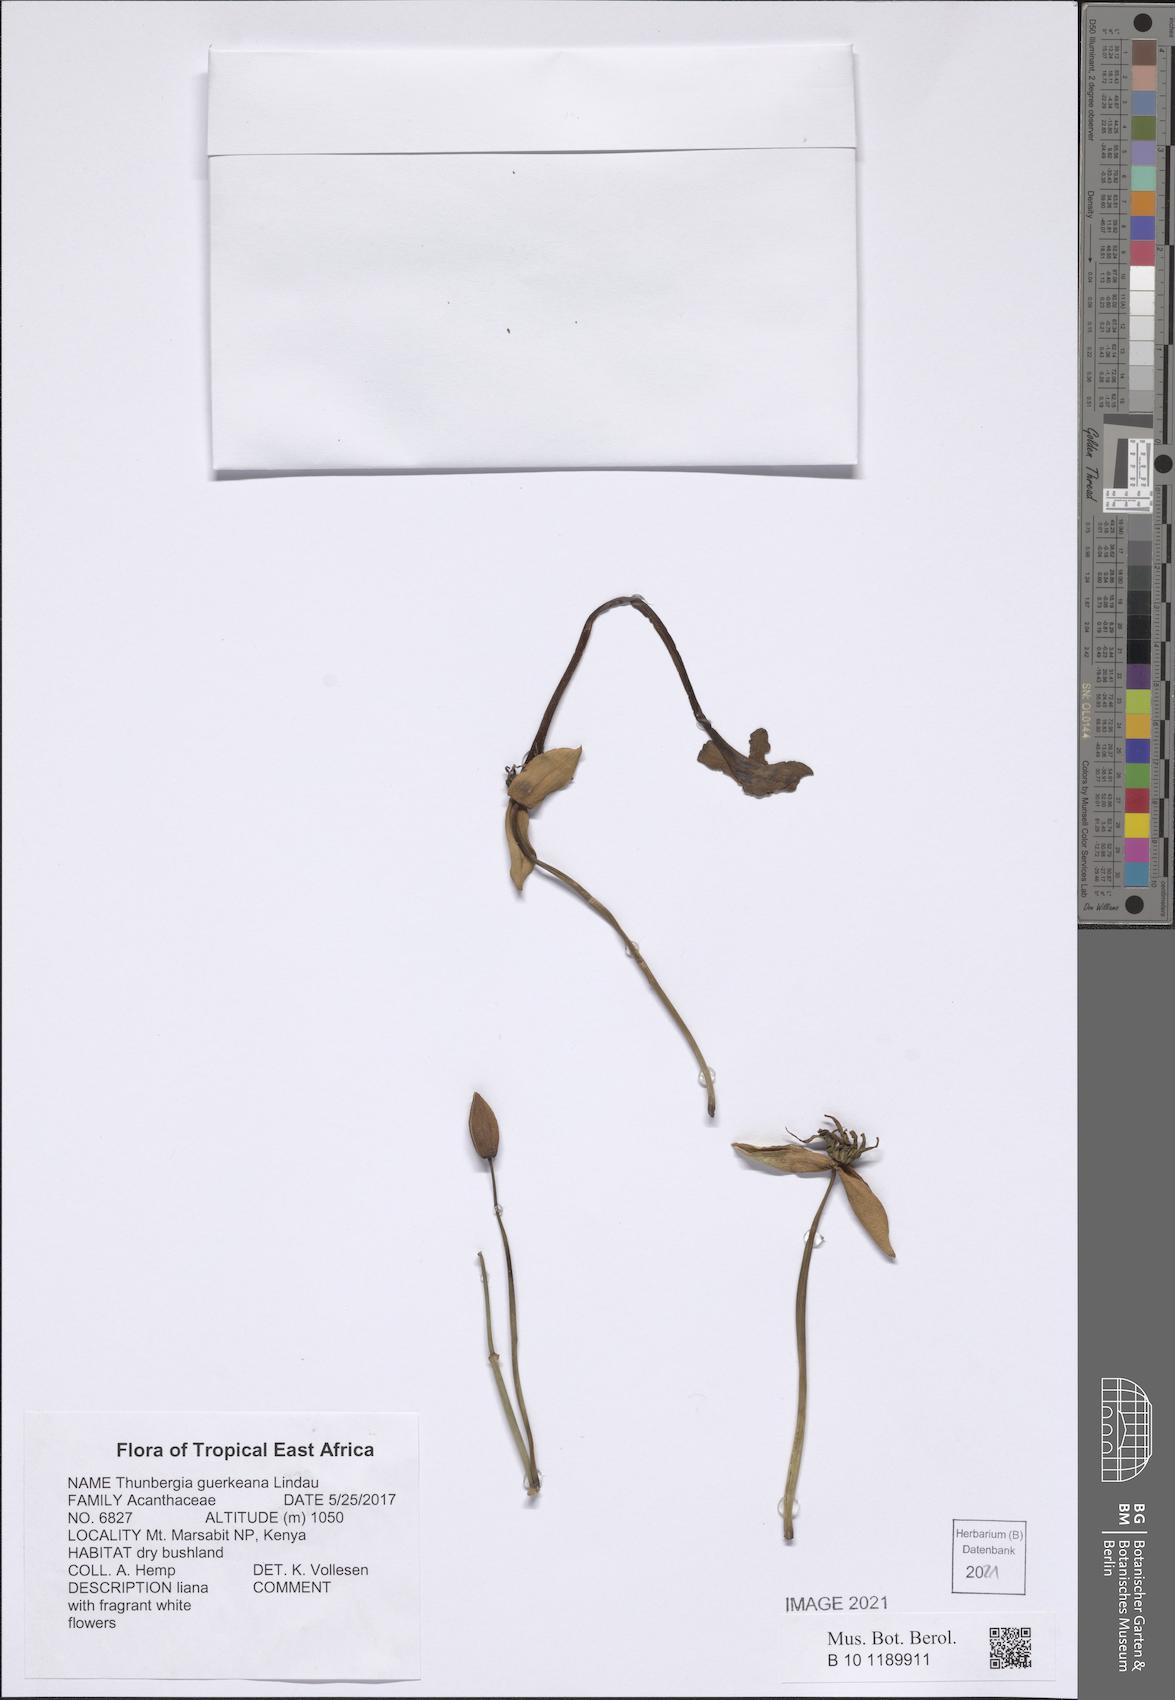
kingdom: Plantae
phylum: Tracheophyta
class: Magnoliopsida
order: Lamiales
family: Acanthaceae
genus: Thunbergia
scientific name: Thunbergia guerkeana
